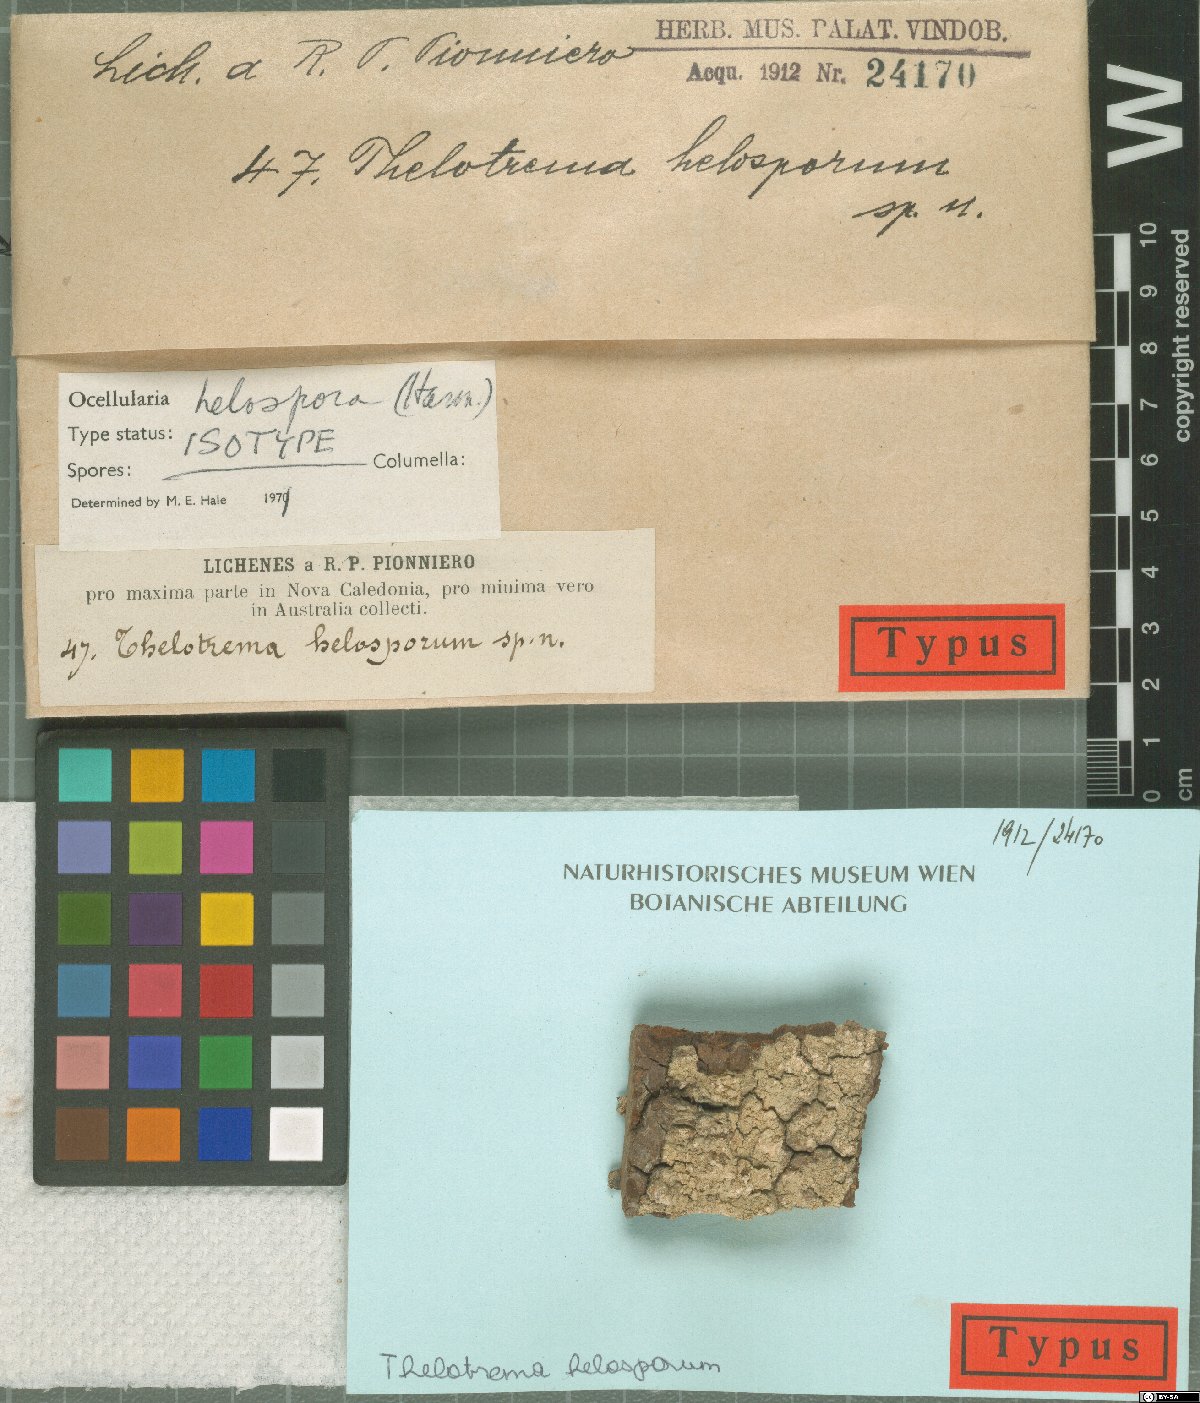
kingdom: Fungi
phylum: Ascomycota
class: Lecanoromycetes
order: Ostropales
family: Graphidaceae
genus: Ocellularia
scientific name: Ocellularia holospora
